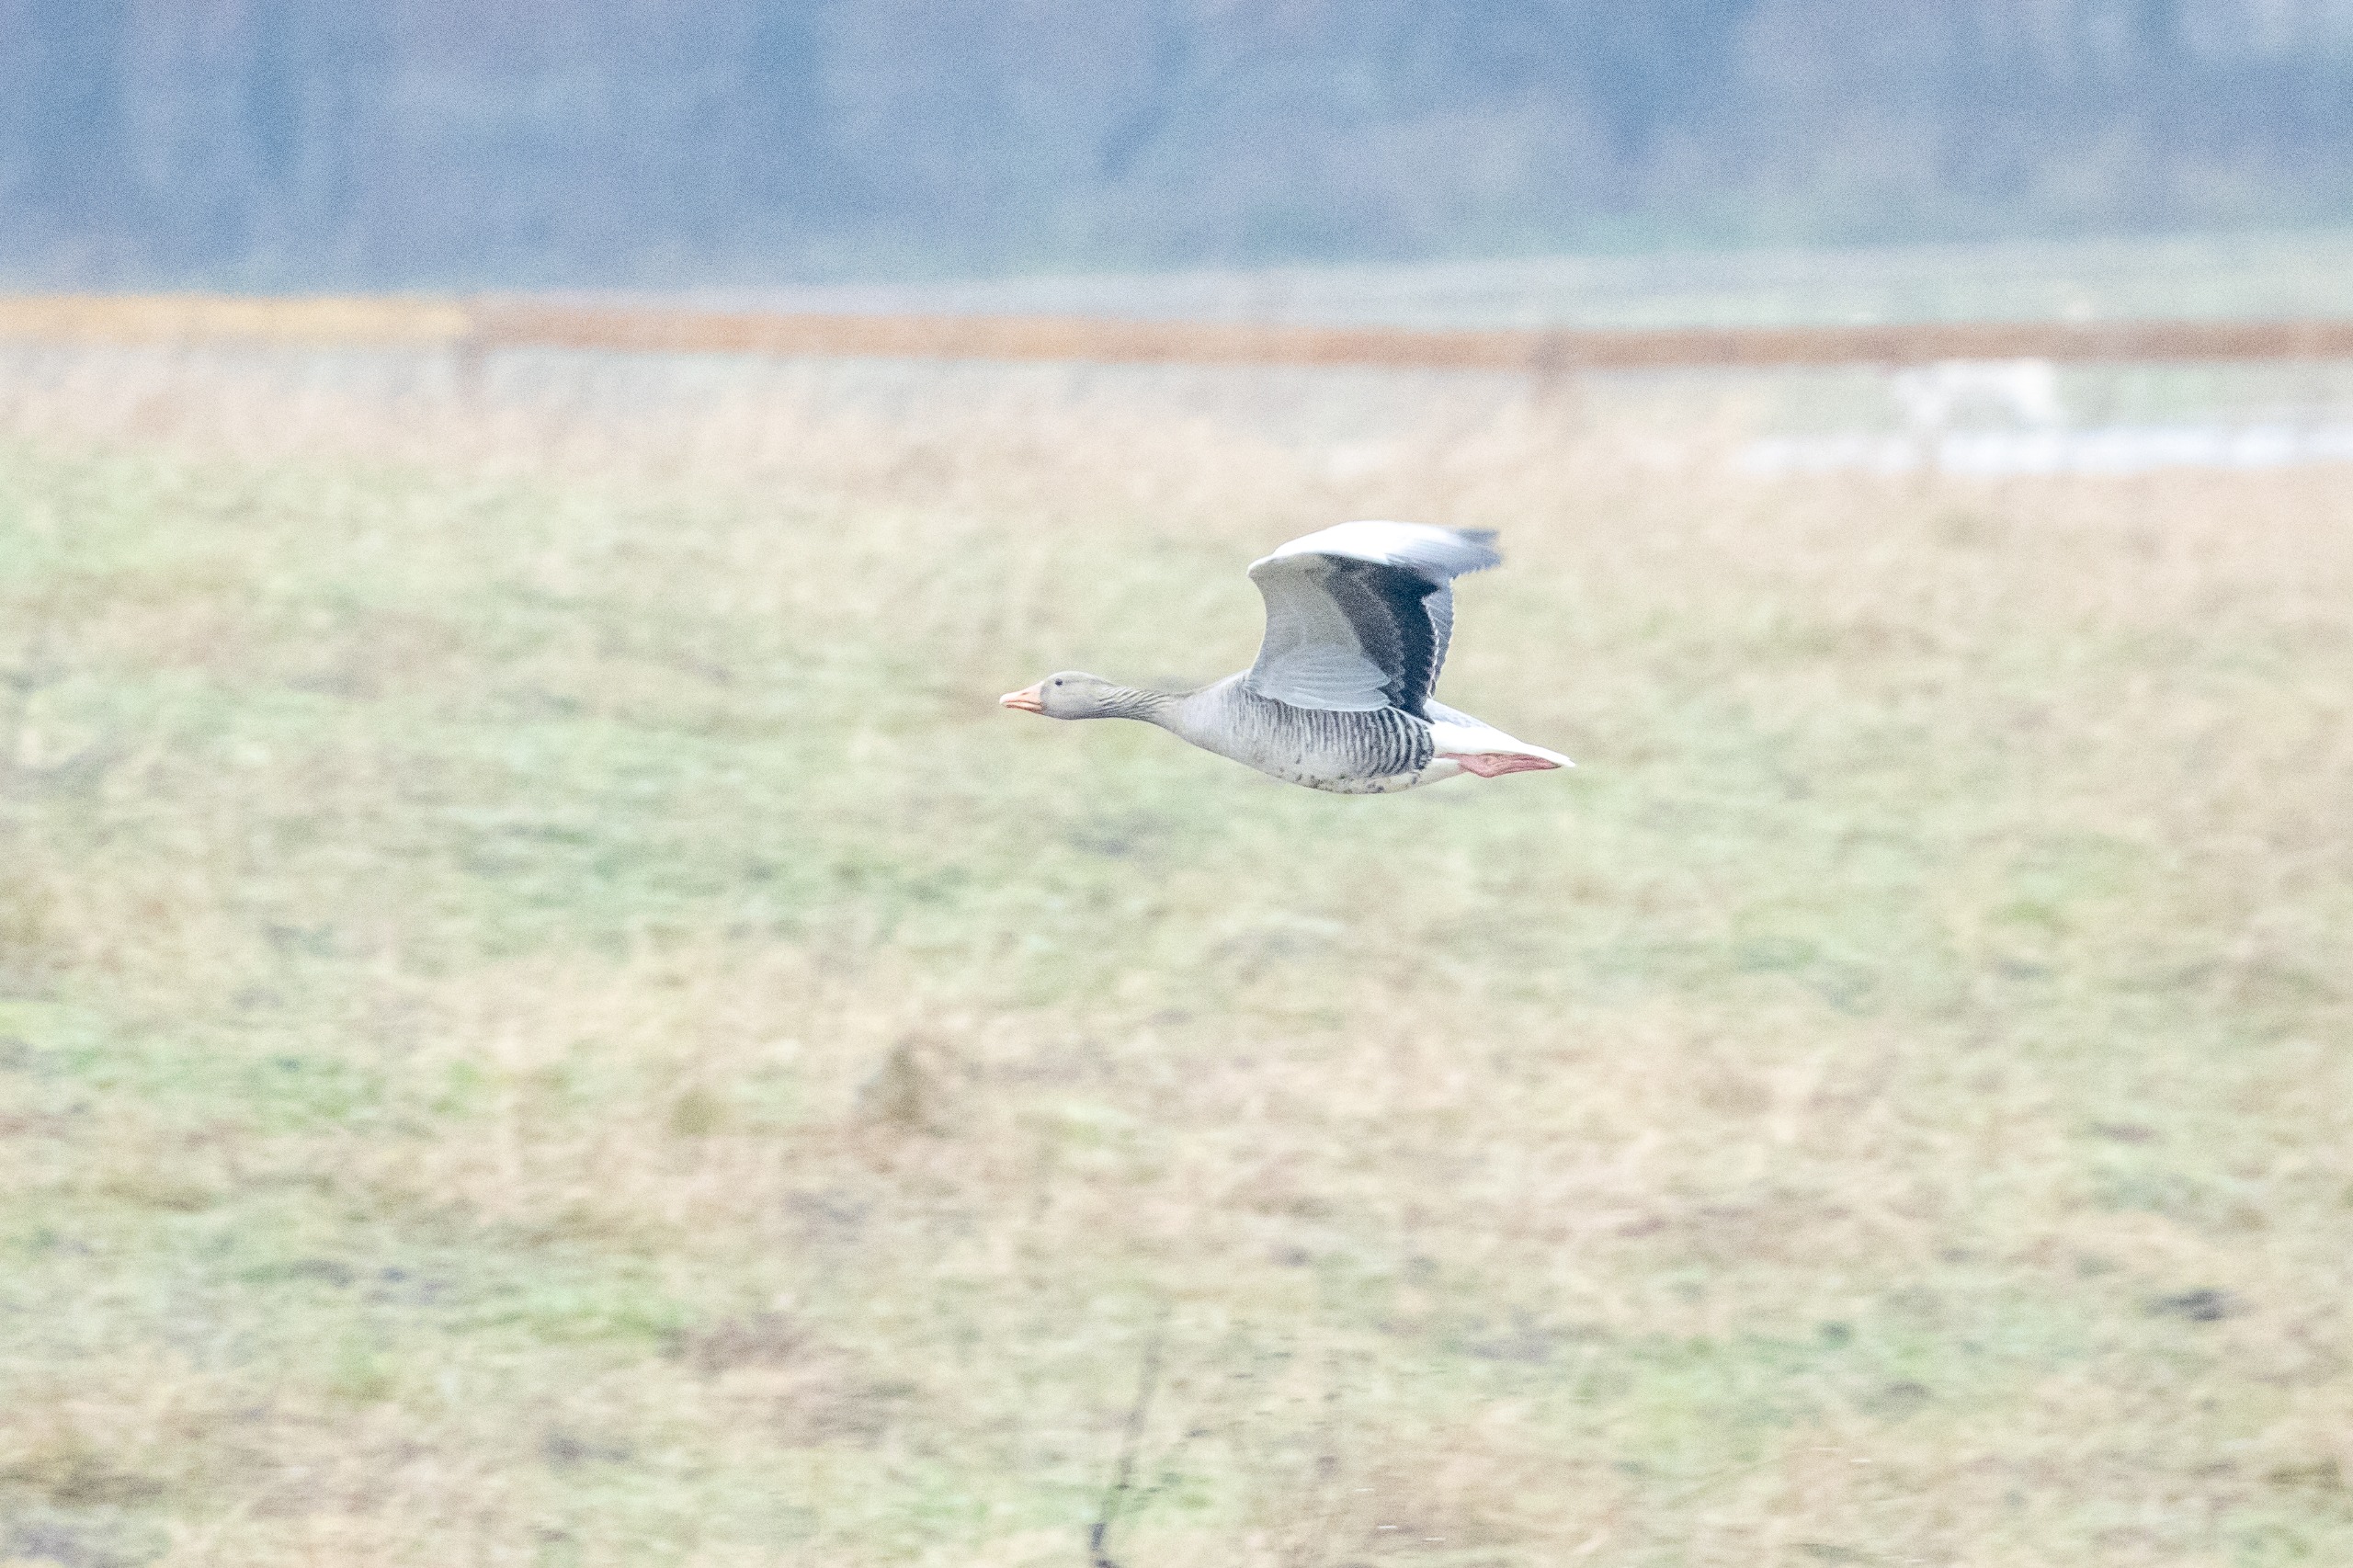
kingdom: Animalia
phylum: Chordata
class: Aves
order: Anseriformes
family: Anatidae
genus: Anser
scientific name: Anser anser
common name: Grågås
